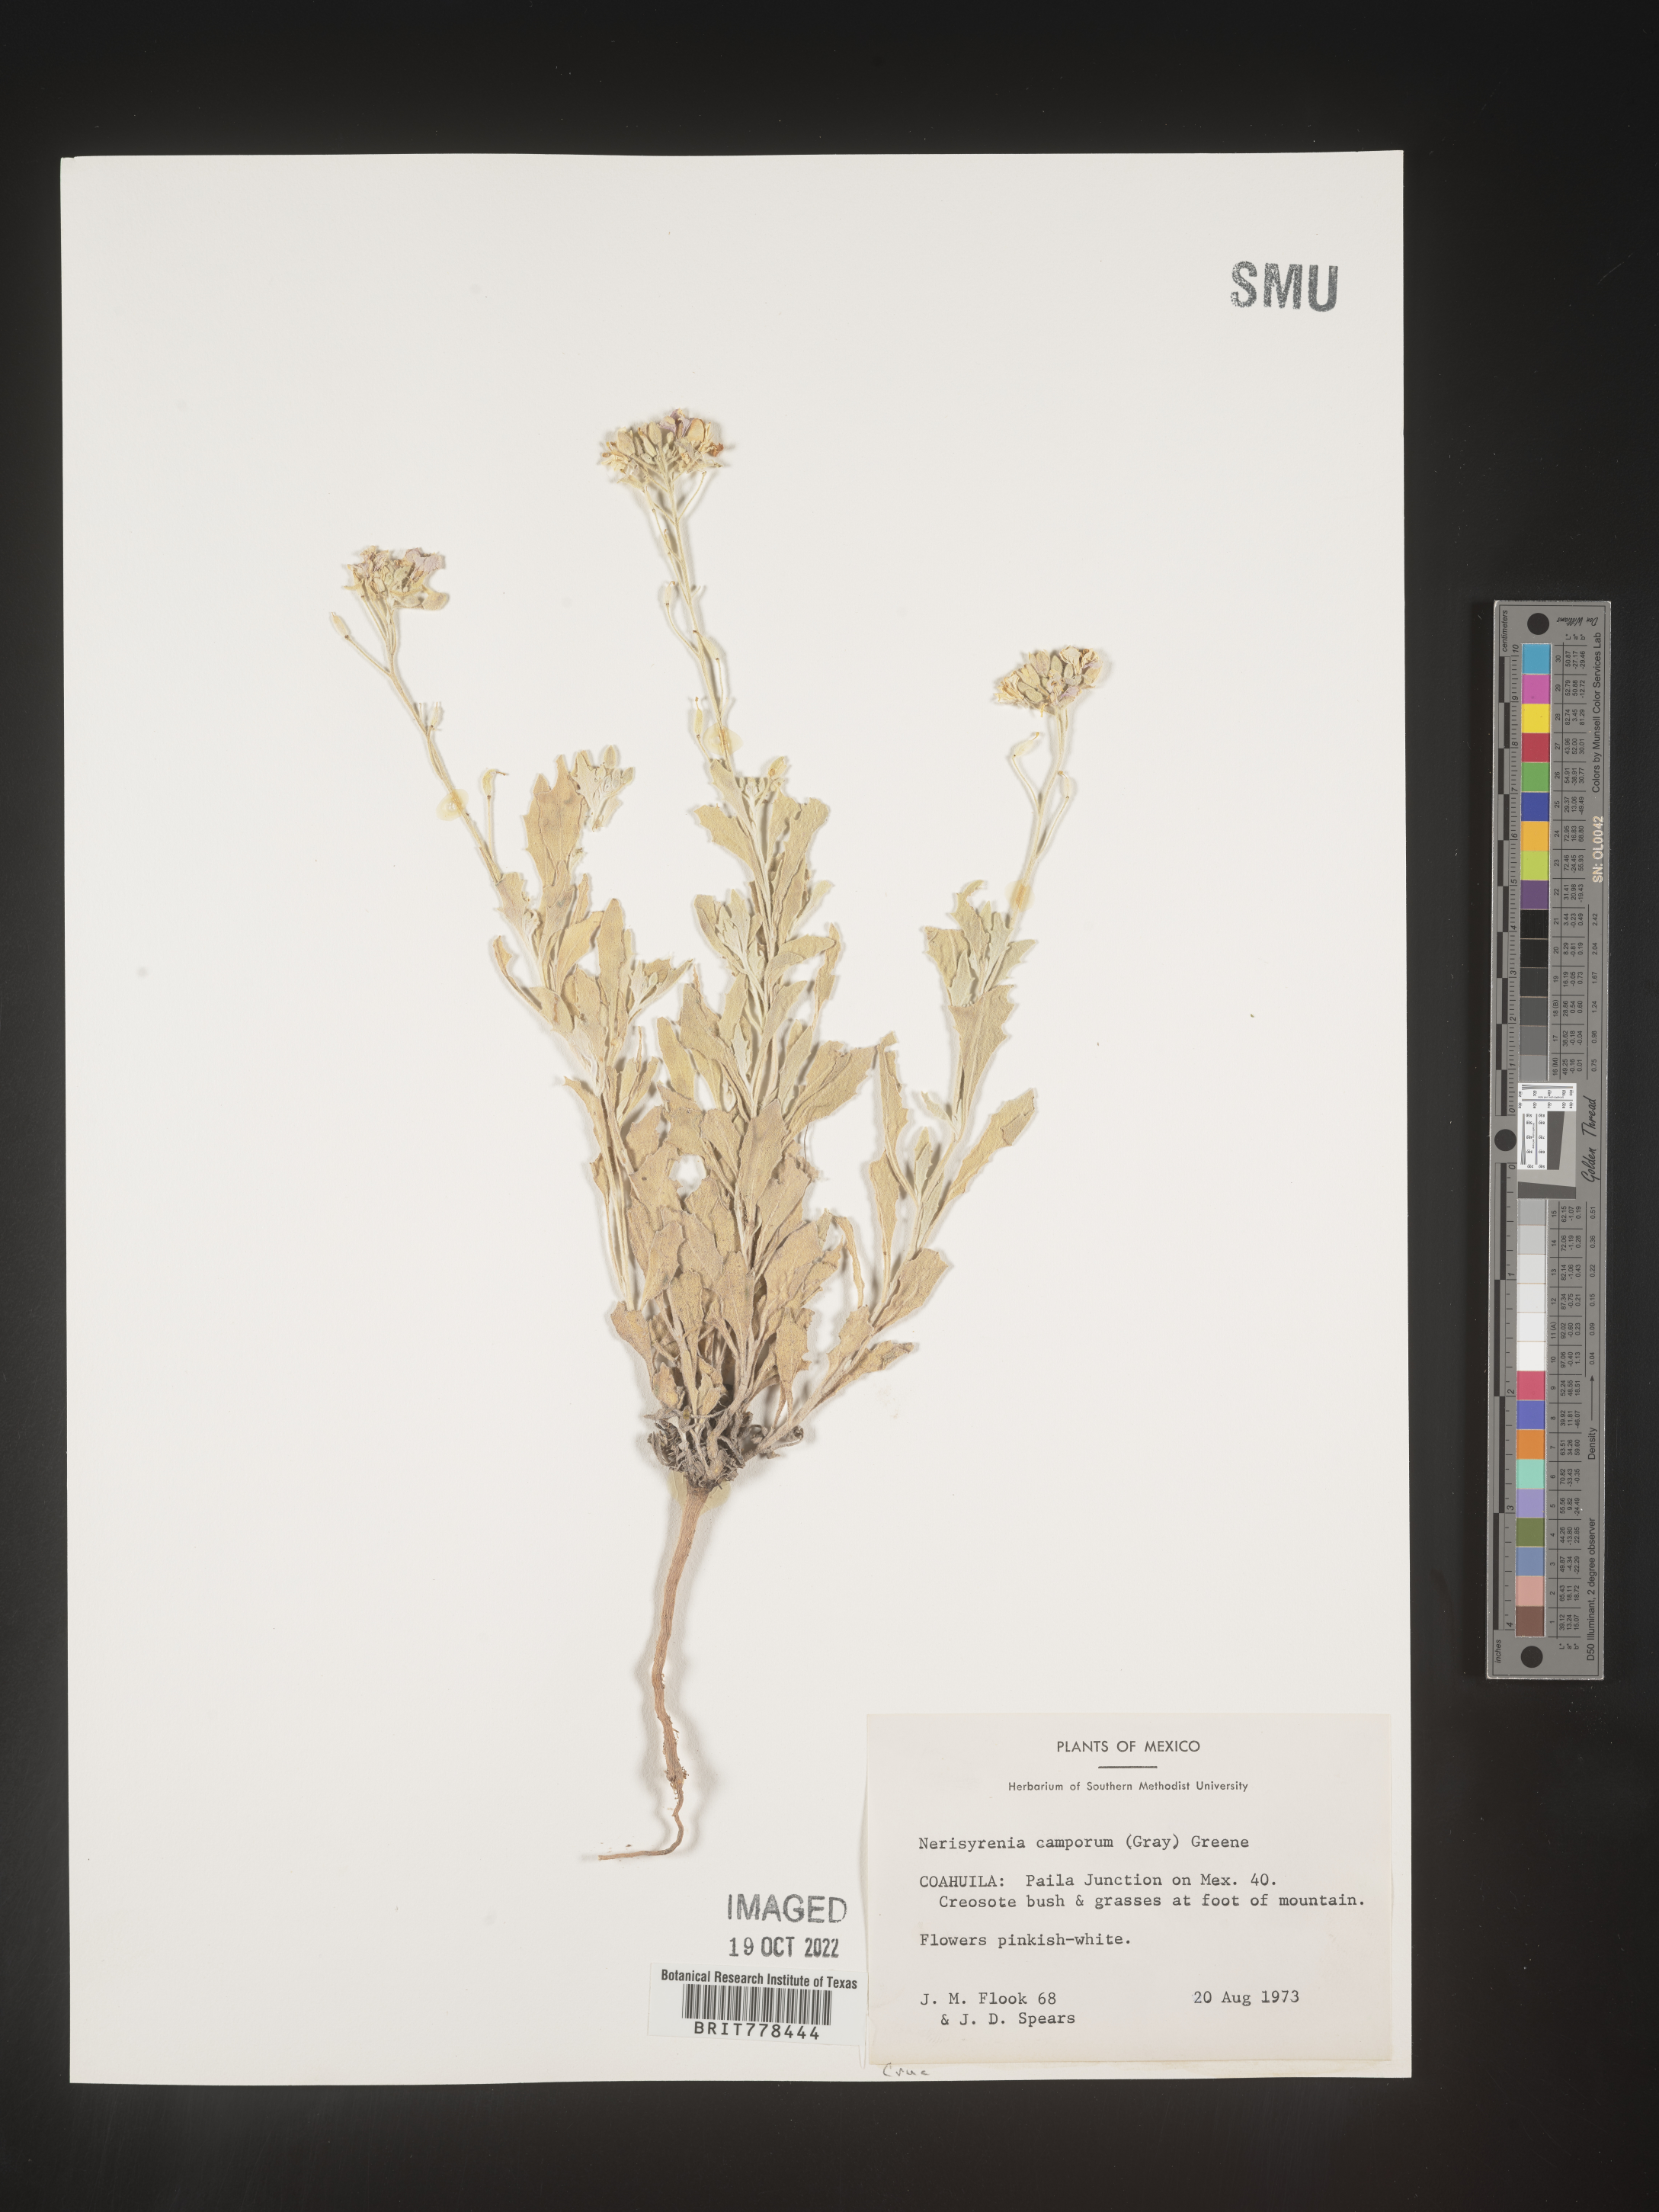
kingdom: Plantae
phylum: Tracheophyta
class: Magnoliopsida
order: Brassicales
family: Brassicaceae
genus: Nerisyrenia
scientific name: Nerisyrenia
